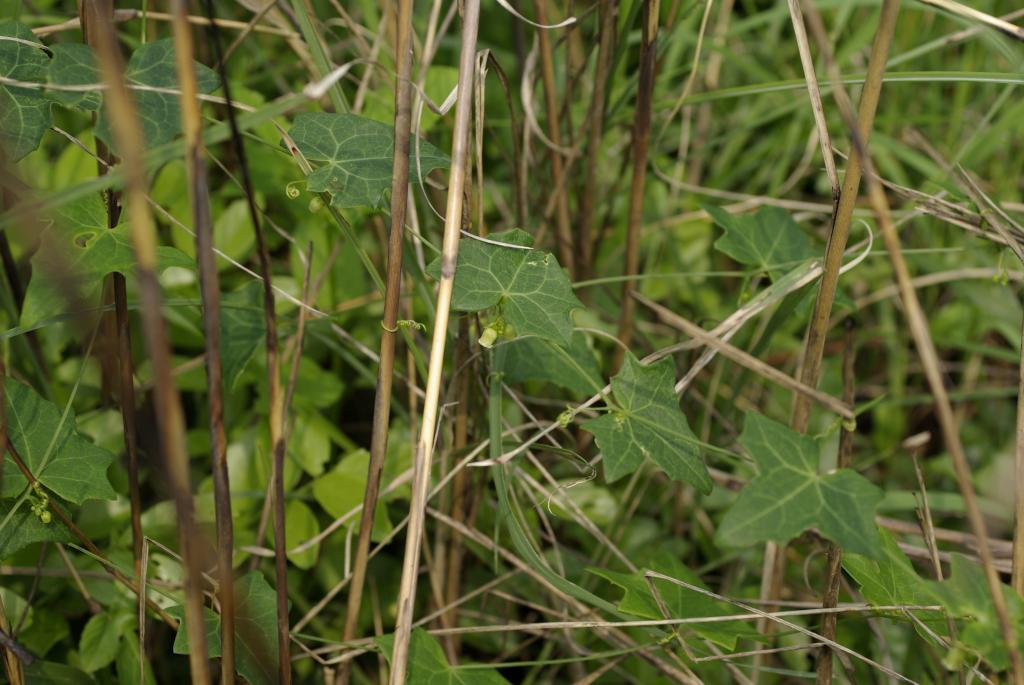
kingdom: Plantae
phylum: Tracheophyta
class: Magnoliopsida
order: Cucurbitales
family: Cucurbitaceae
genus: Solena
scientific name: Solena amplexicaulis
